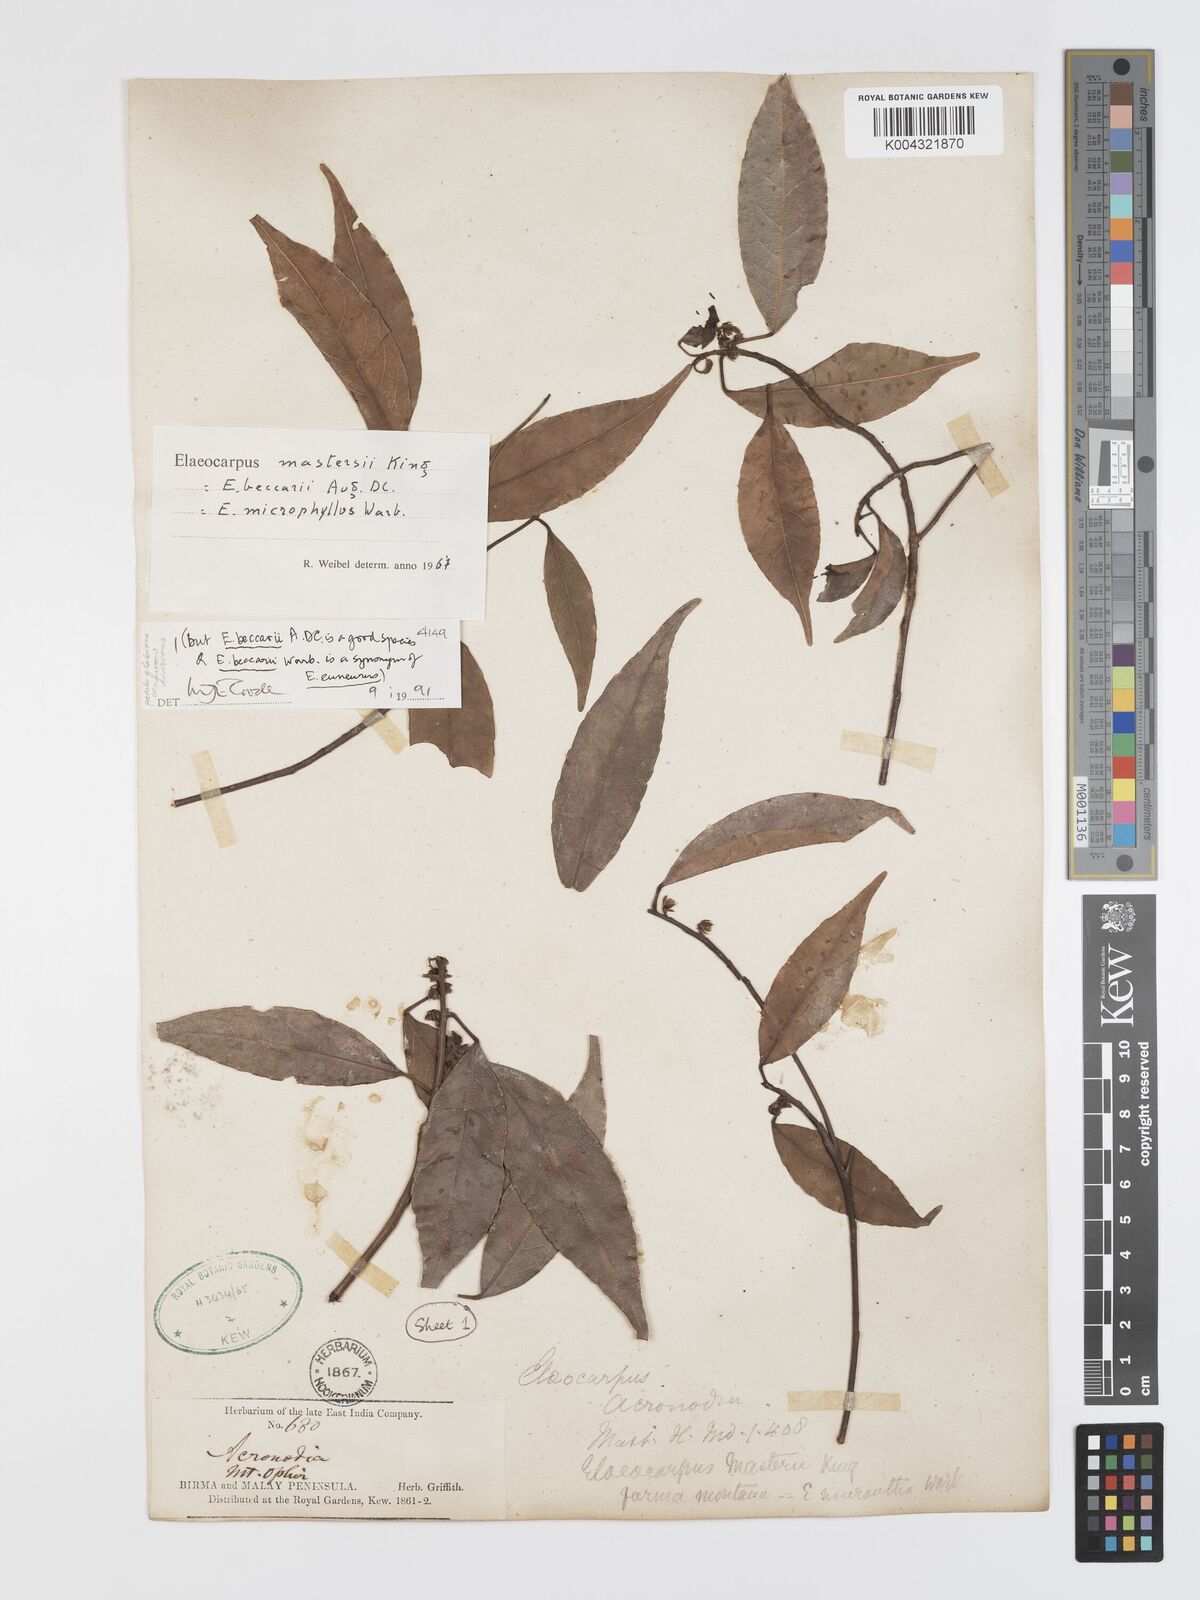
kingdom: Plantae
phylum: Tracheophyta
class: Magnoliopsida
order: Oxalidales
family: Elaeocarpaceae
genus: Elaeocarpus
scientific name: Elaeocarpus mastersii
